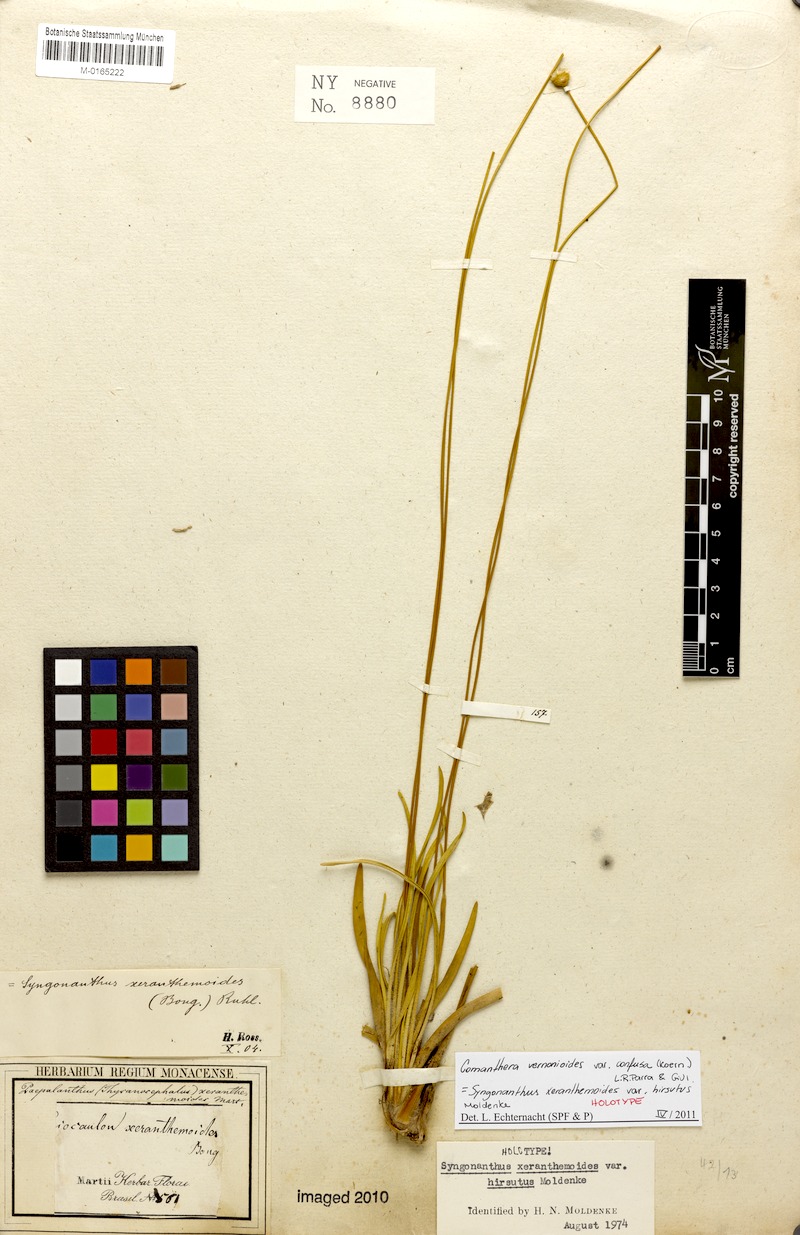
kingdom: Plantae
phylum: Tracheophyta
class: Liliopsida
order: Poales
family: Eriocaulaceae
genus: Comanthera
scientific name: Comanthera centauroides
